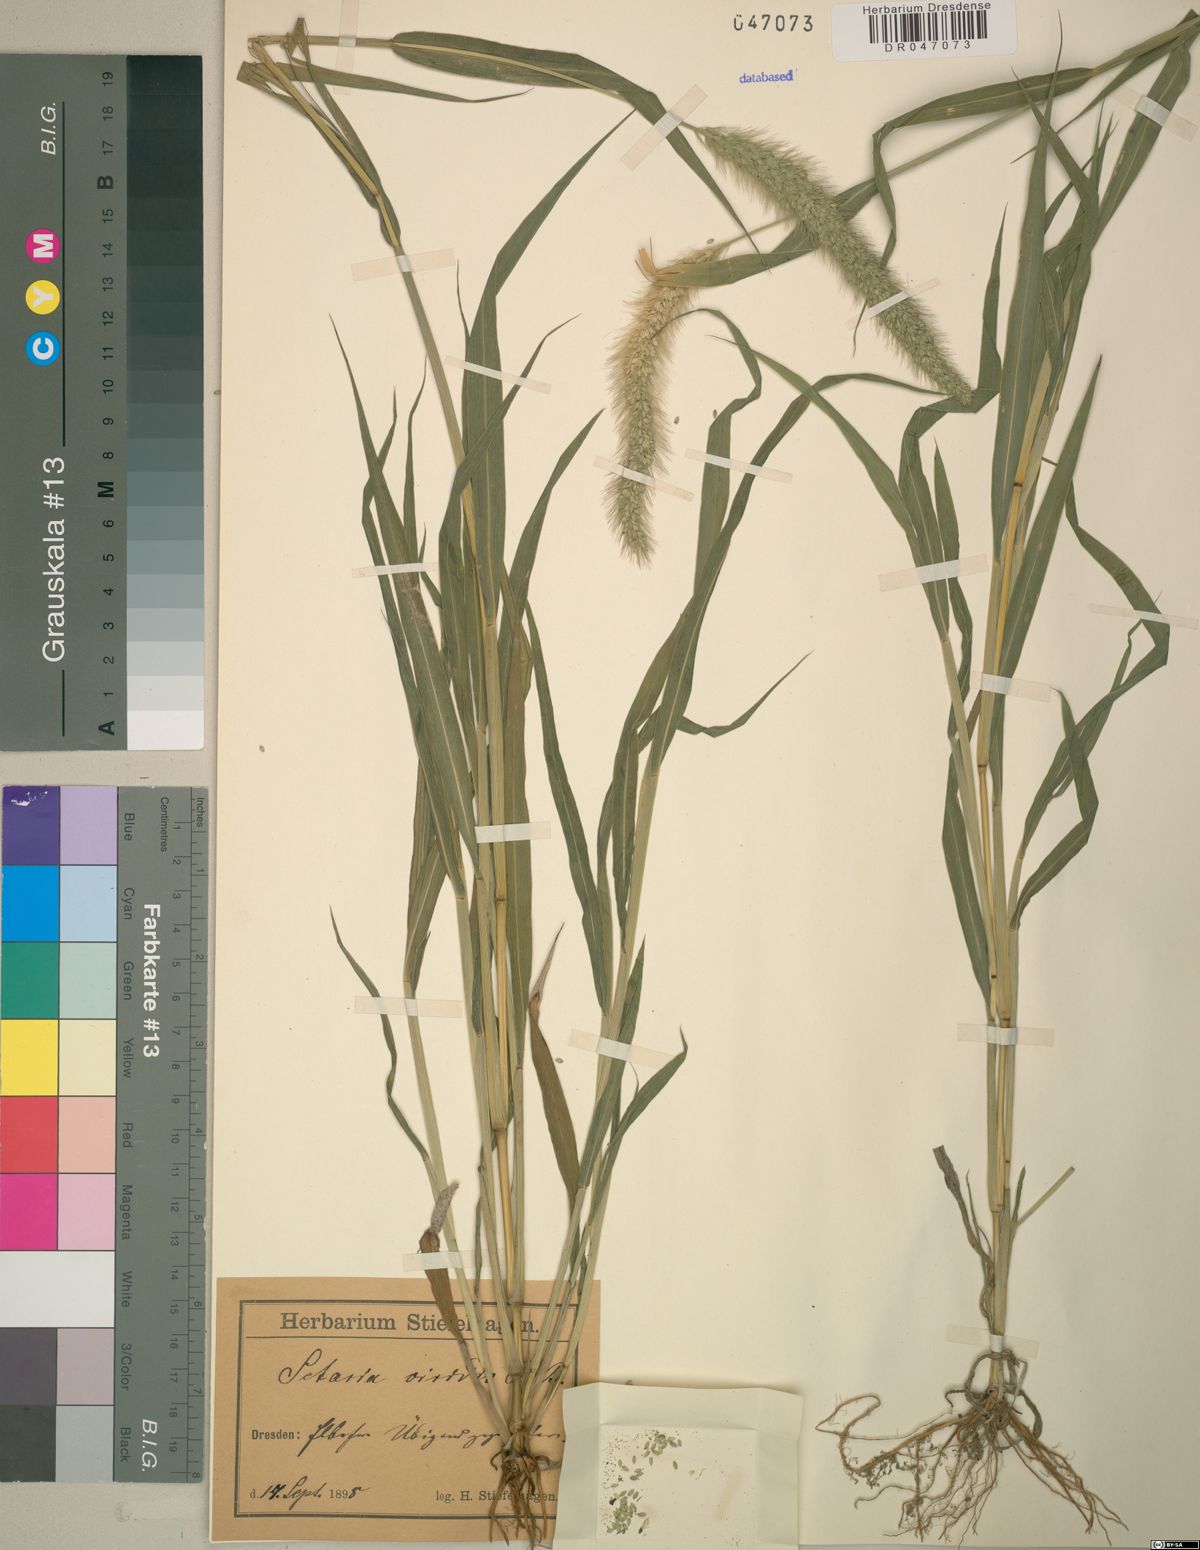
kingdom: Plantae
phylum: Tracheophyta
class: Liliopsida
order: Poales
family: Poaceae
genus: Setaria
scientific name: Setaria viridis
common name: Green bristlegrass
